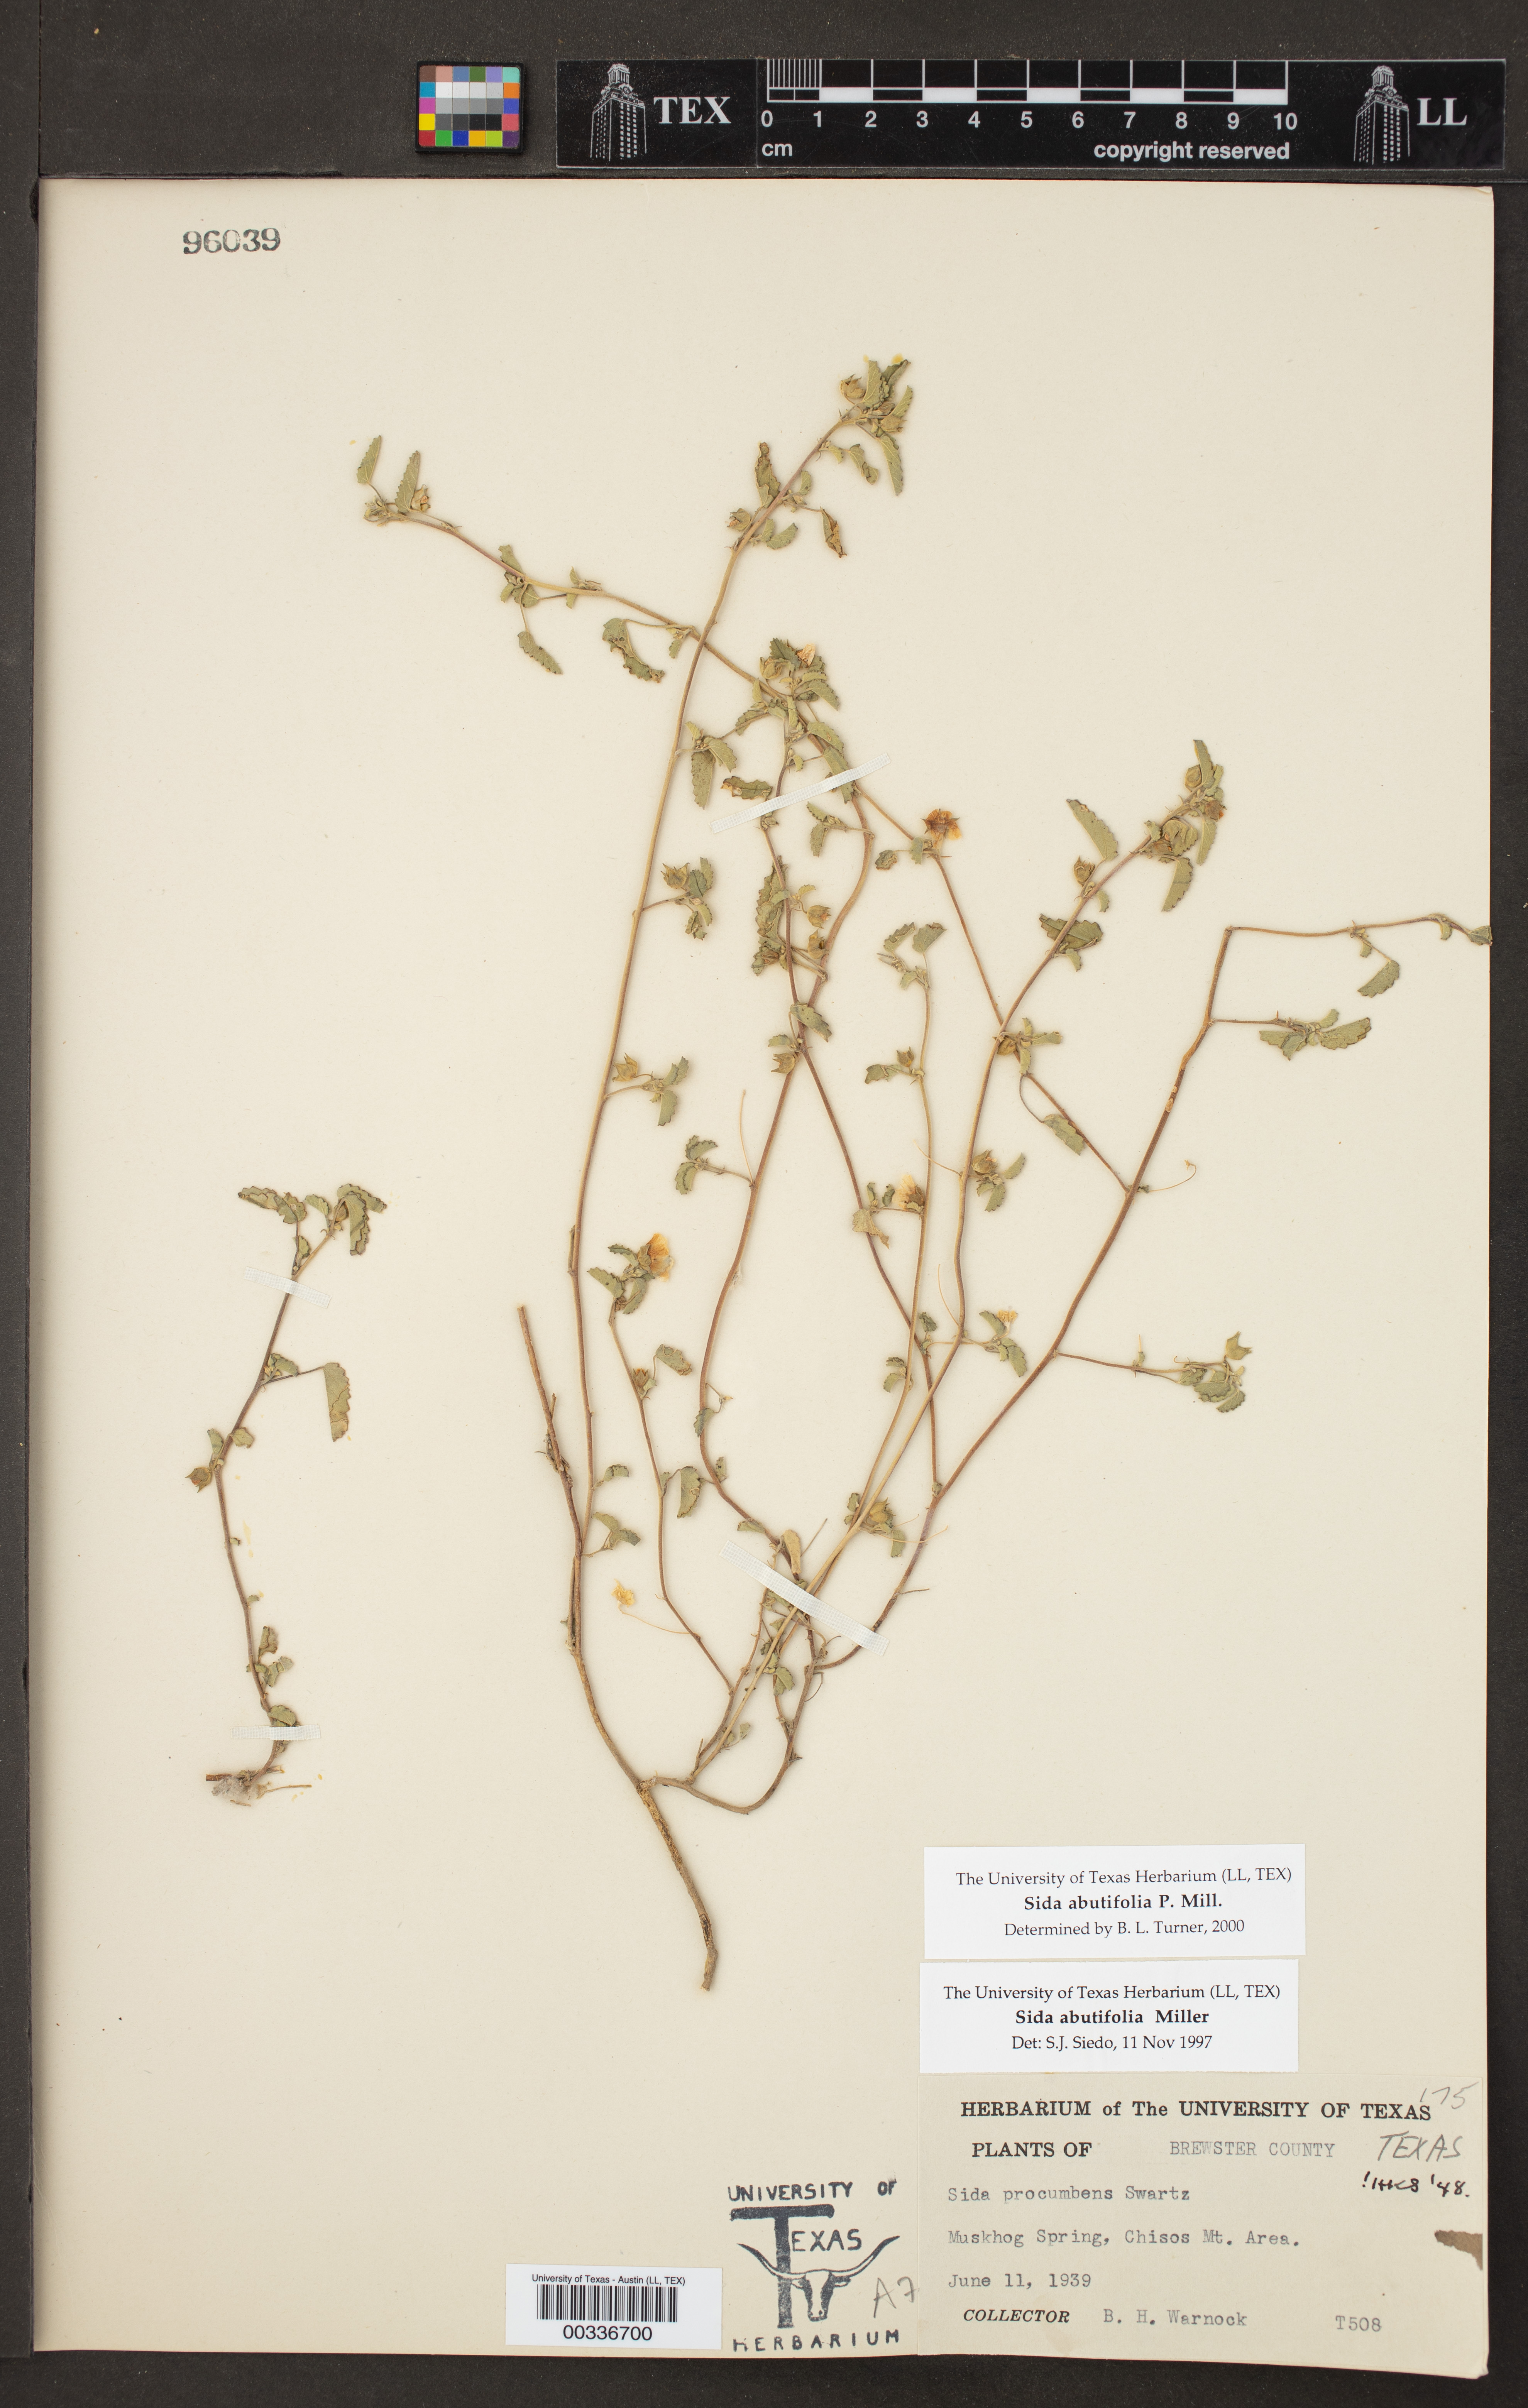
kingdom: Plantae
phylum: Tracheophyta
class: Magnoliopsida
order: Malvales
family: Malvaceae
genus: Sida
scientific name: Sida abutilifolia
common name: Spreading fanpetals
